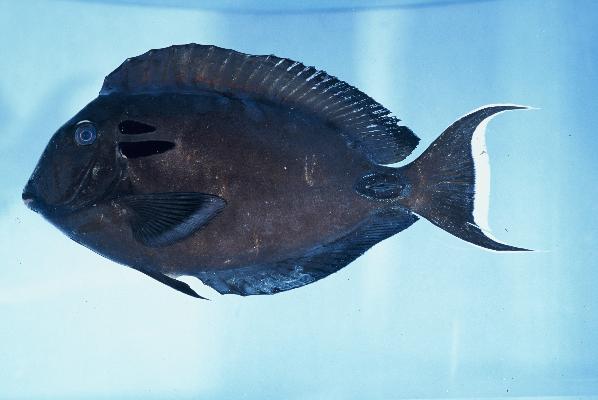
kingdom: Animalia
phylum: Chordata
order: Perciformes
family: Acanthuridae
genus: Acanthurus
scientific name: Acanthurus tennentii
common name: Doubleband surgeonfish
